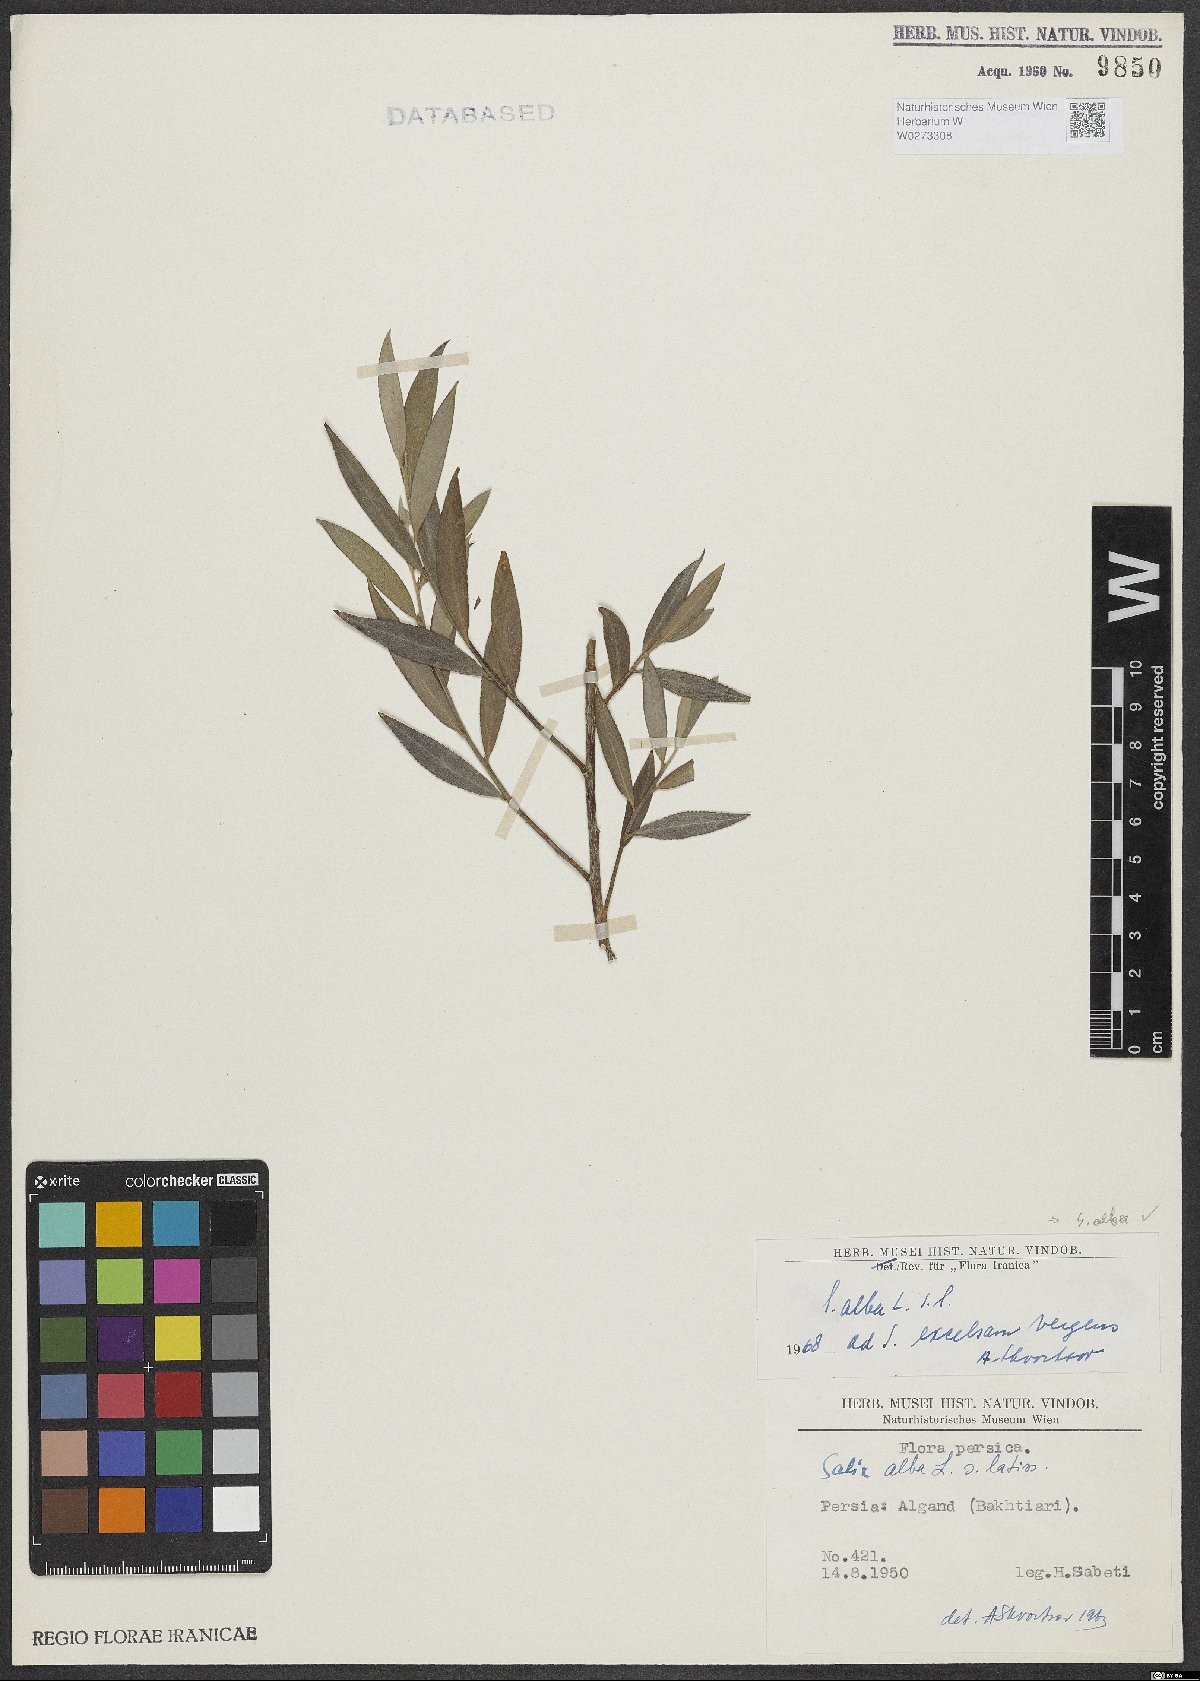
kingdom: Plantae
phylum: Tracheophyta
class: Magnoliopsida
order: Malpighiales
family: Salicaceae
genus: Salix
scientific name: Salix alba
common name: White willow
